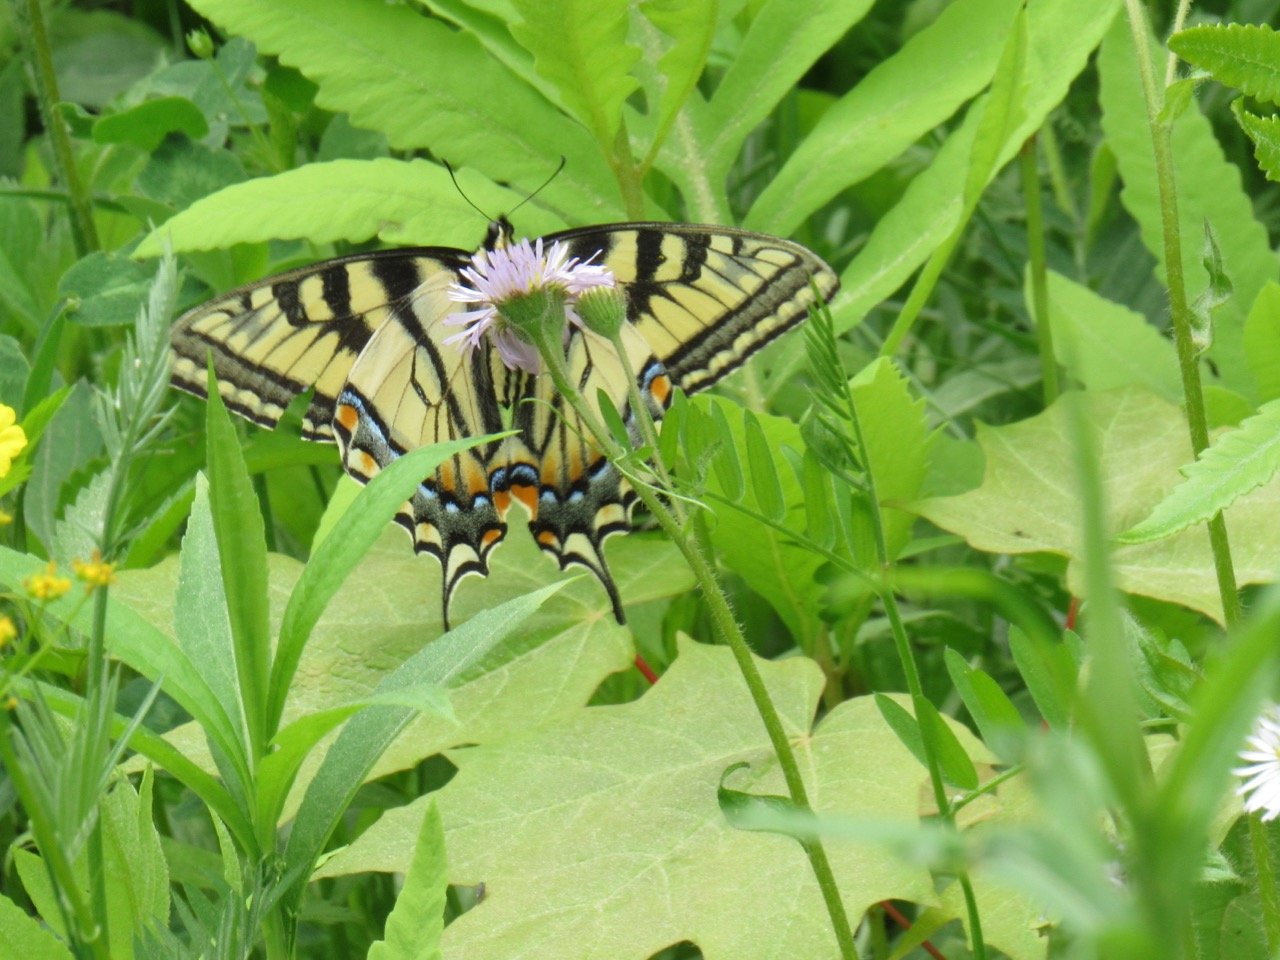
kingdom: Animalia
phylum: Arthropoda
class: Insecta
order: Lepidoptera
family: Papilionidae
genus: Pterourus
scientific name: Pterourus canadensis
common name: Canadian Tiger Swallowtail
